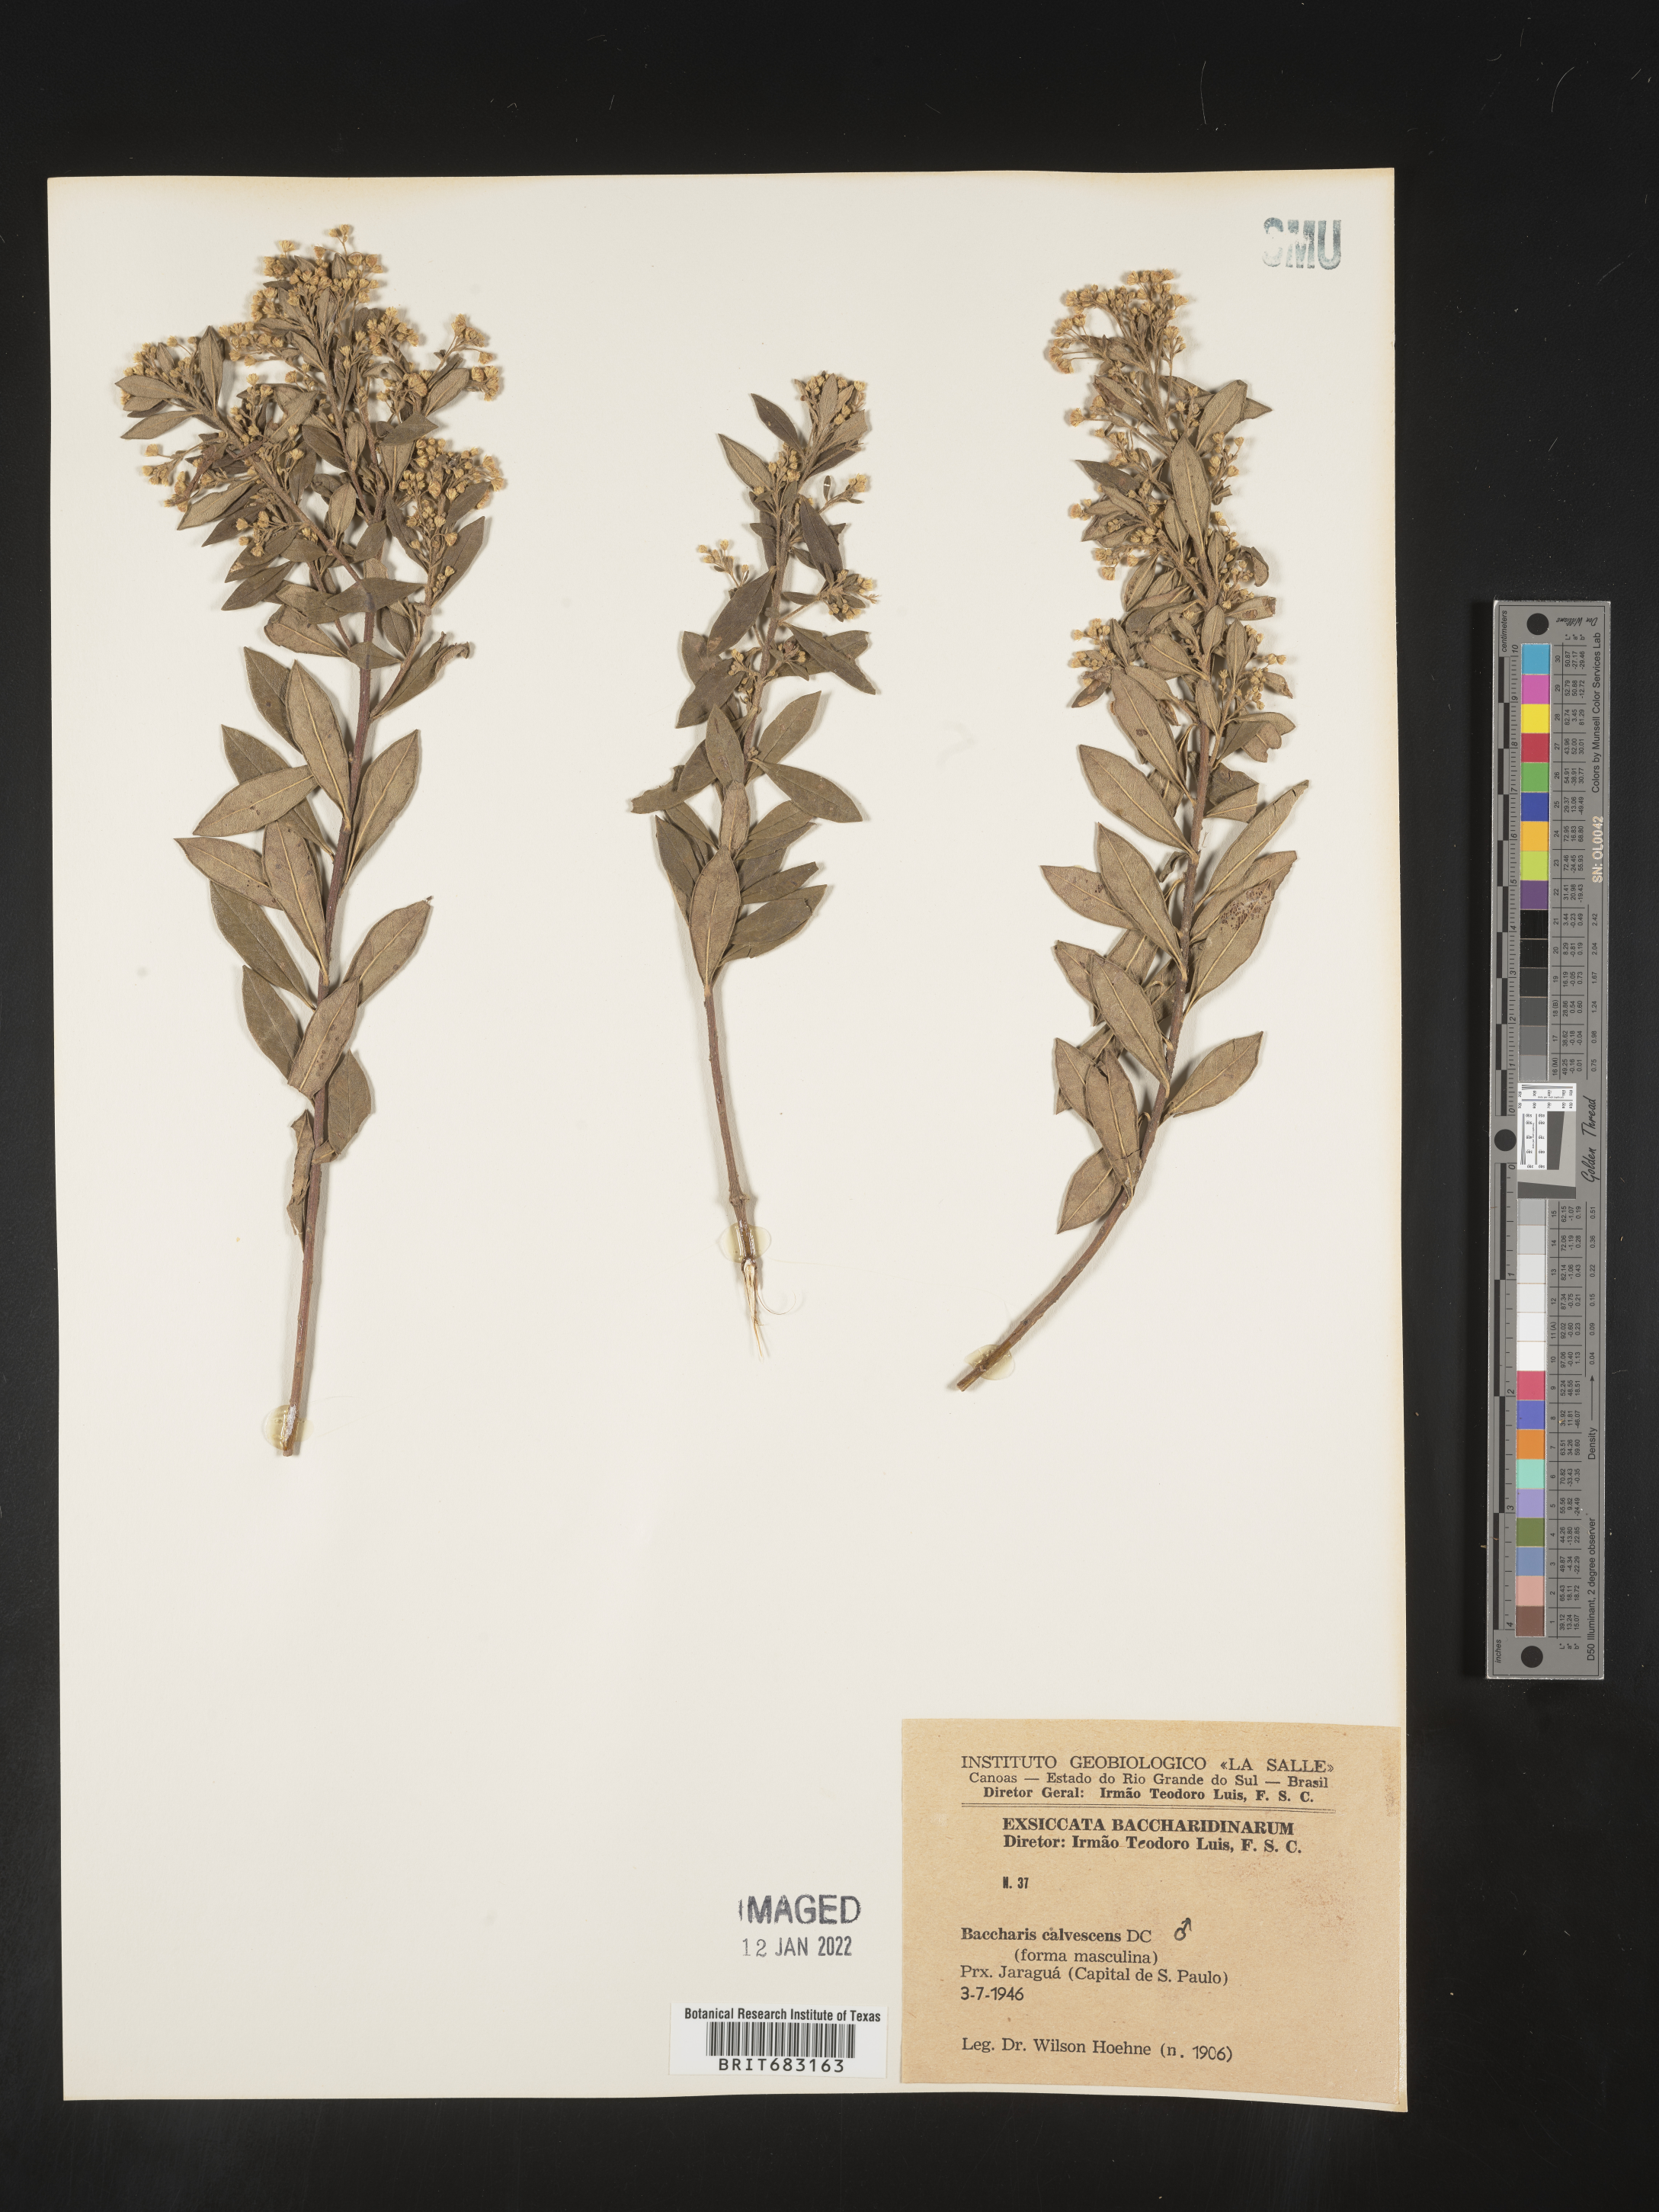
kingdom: Plantae
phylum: Tracheophyta
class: Magnoliopsida
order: Asterales
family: Asteraceae
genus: Baccharis
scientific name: Baccharis
